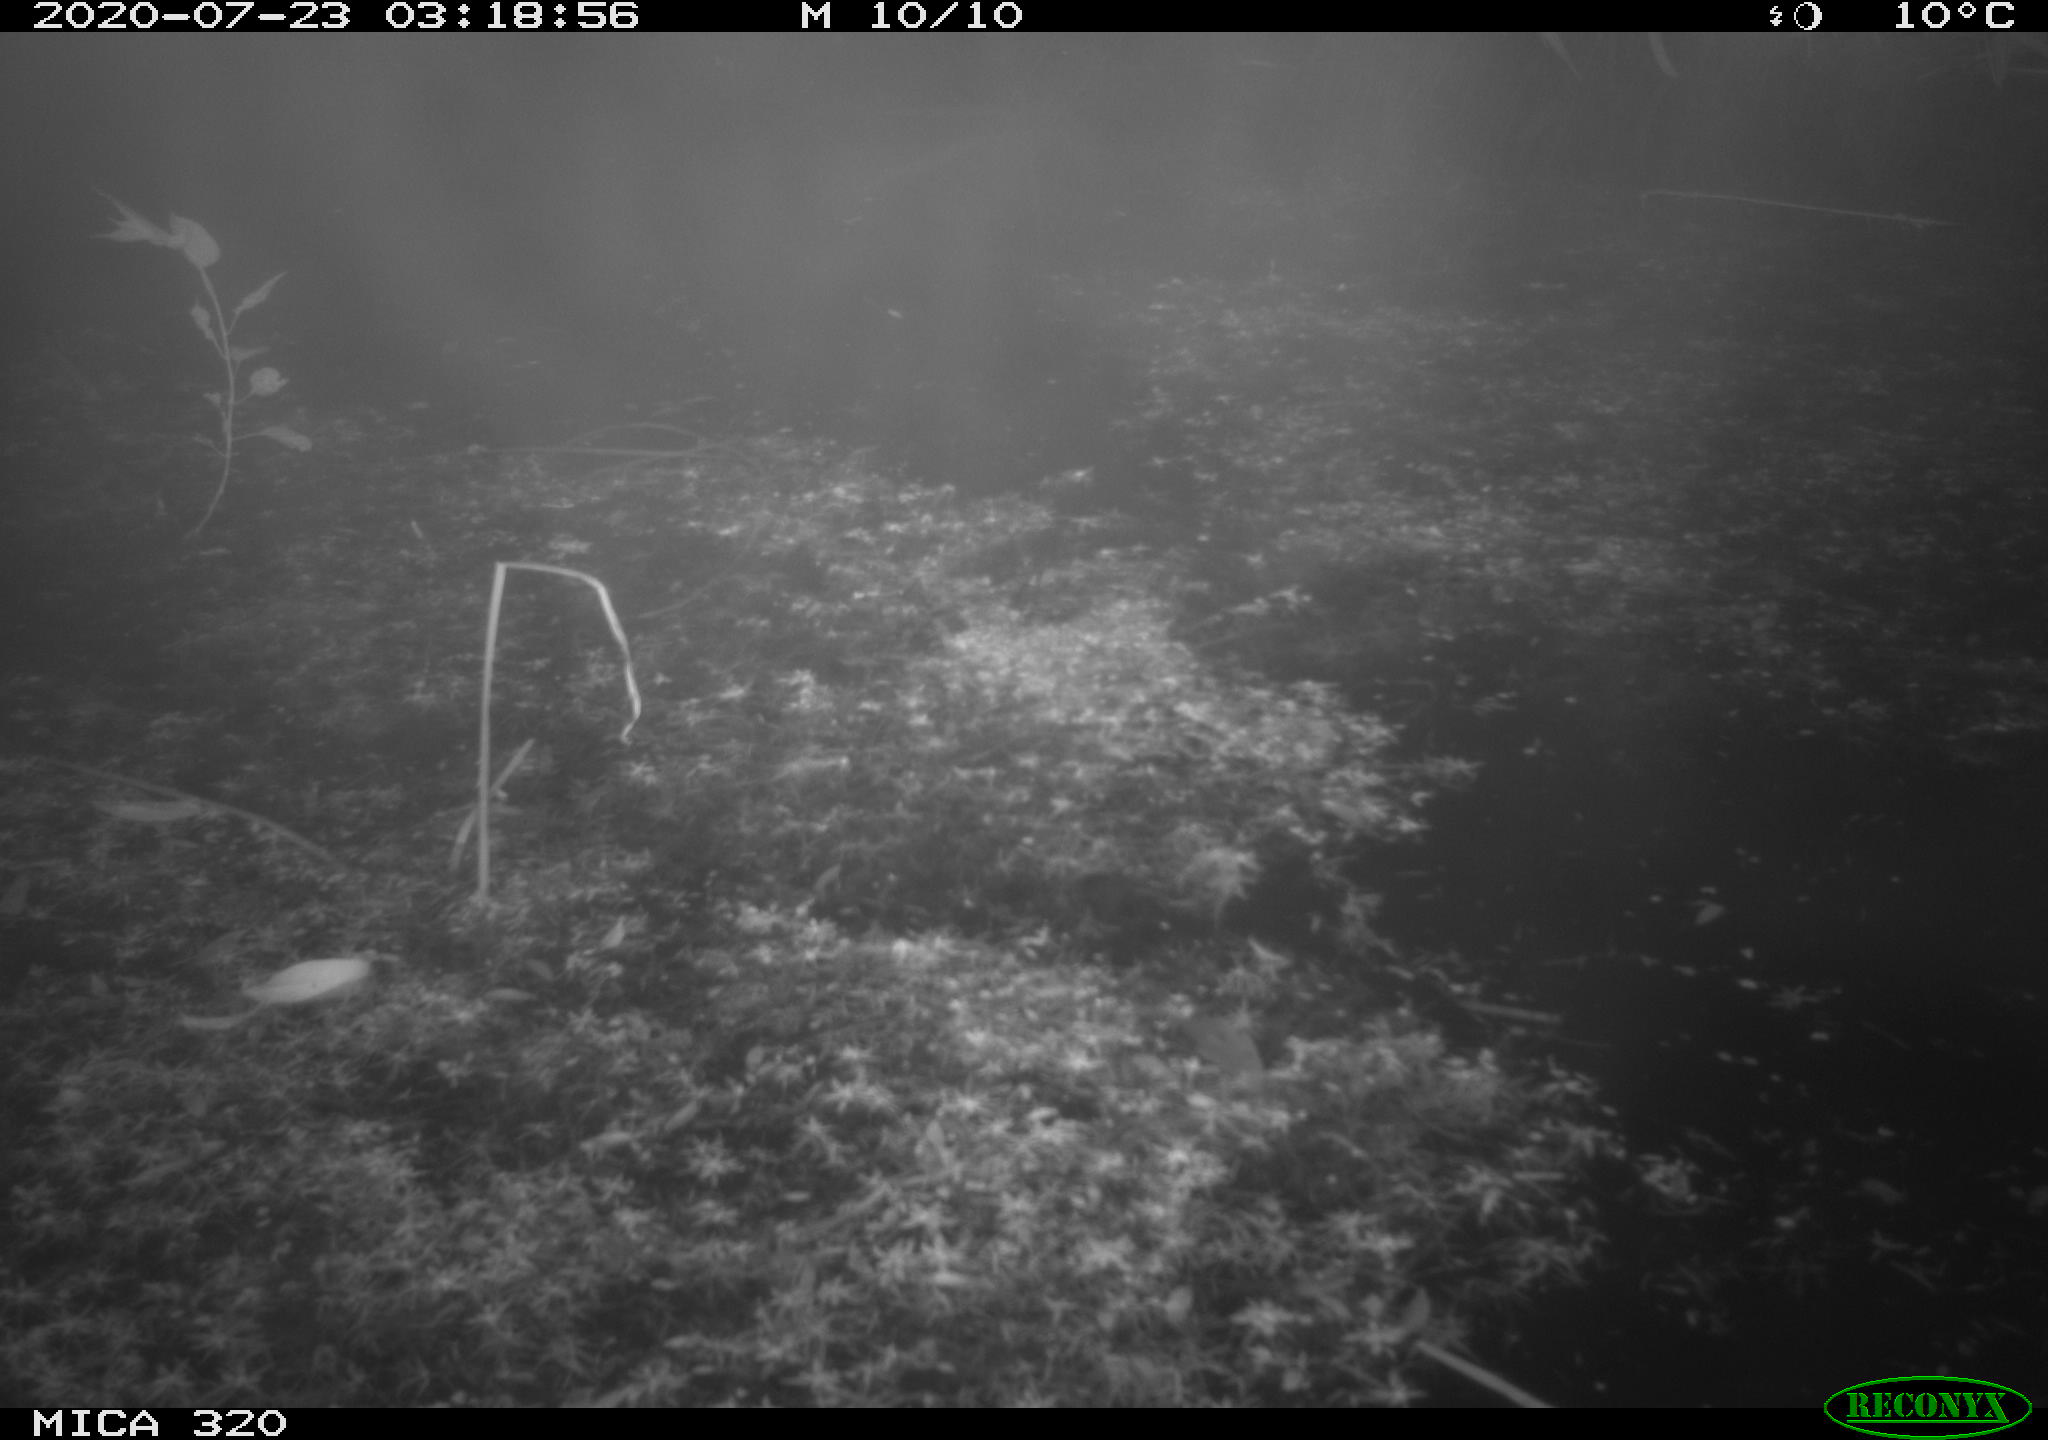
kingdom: Animalia
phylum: Chordata
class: Aves
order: Anseriformes
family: Anatidae
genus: Anas
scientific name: Anas platyrhynchos
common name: Mallard
